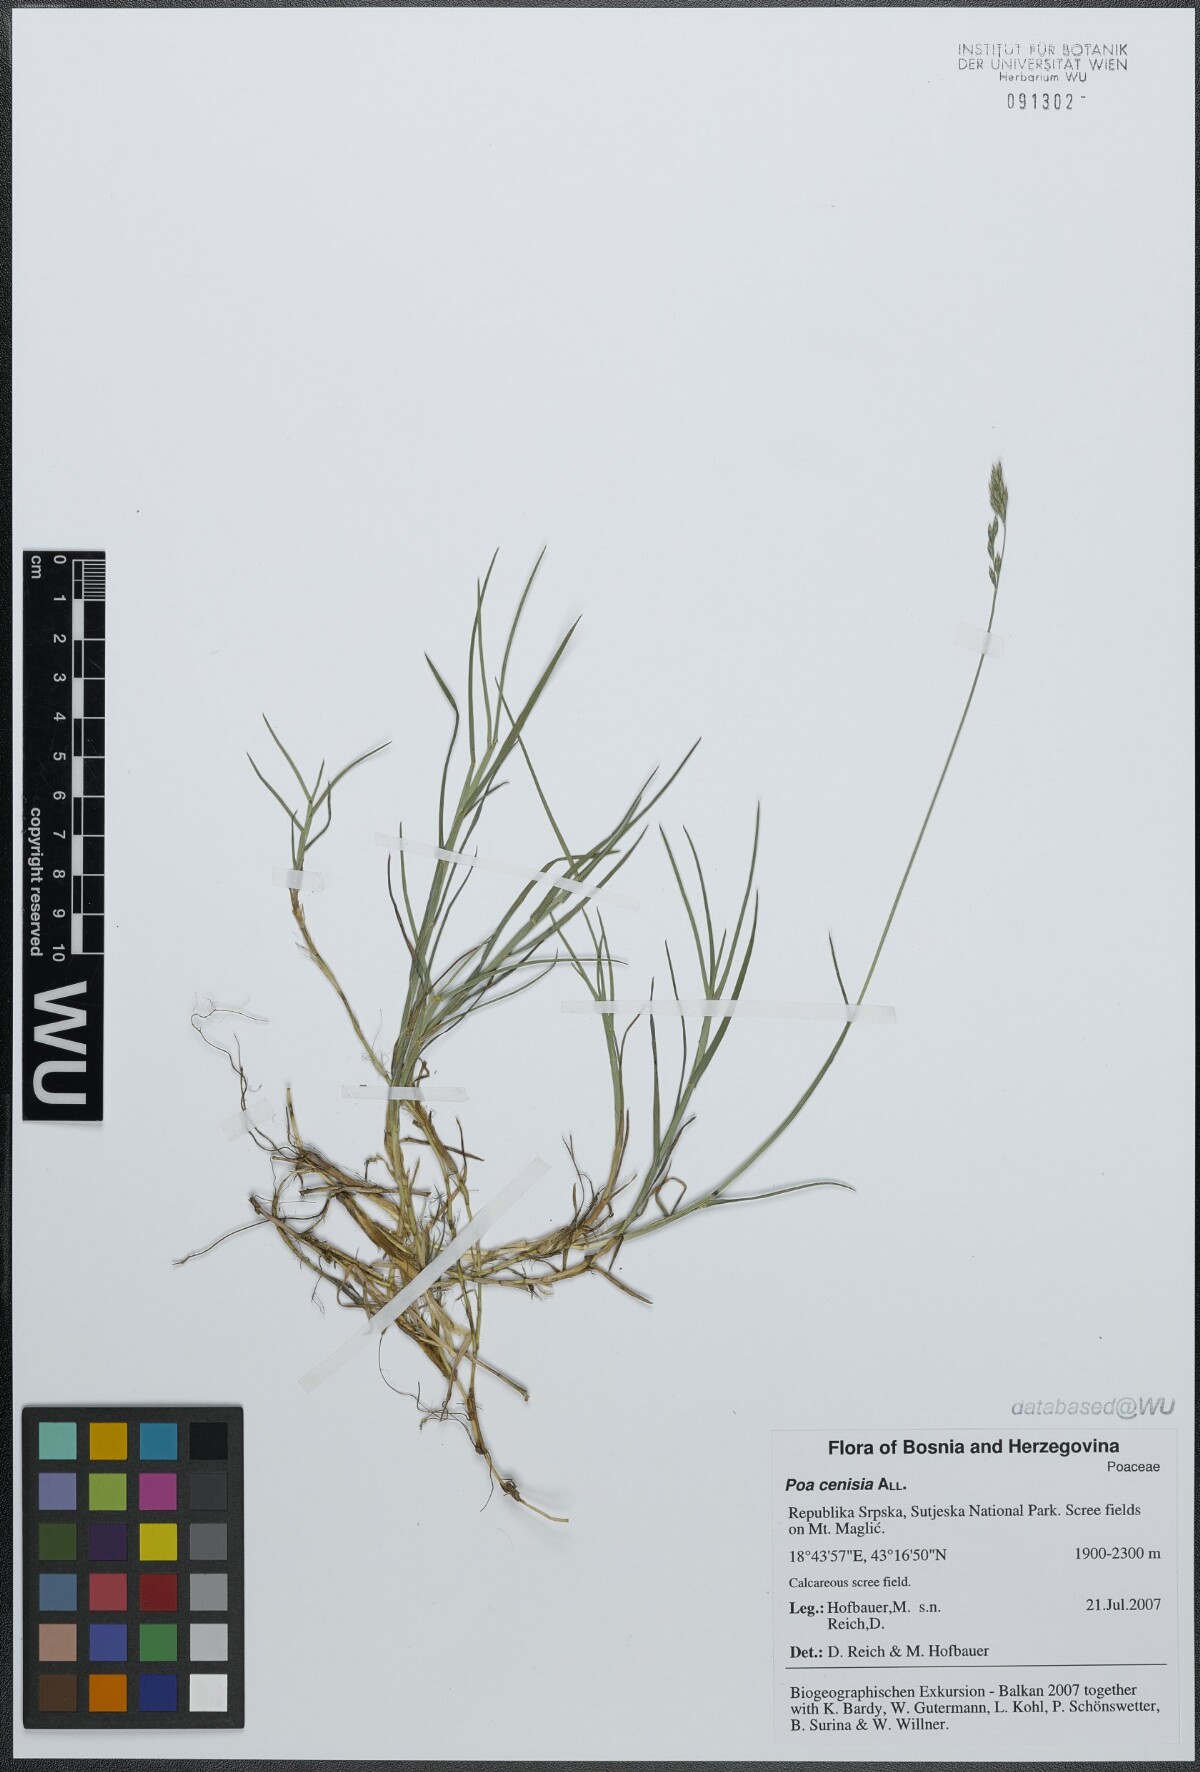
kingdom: Plantae
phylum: Tracheophyta
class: Liliopsida
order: Poales
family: Poaceae
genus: Poa
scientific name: Poa cenisia
